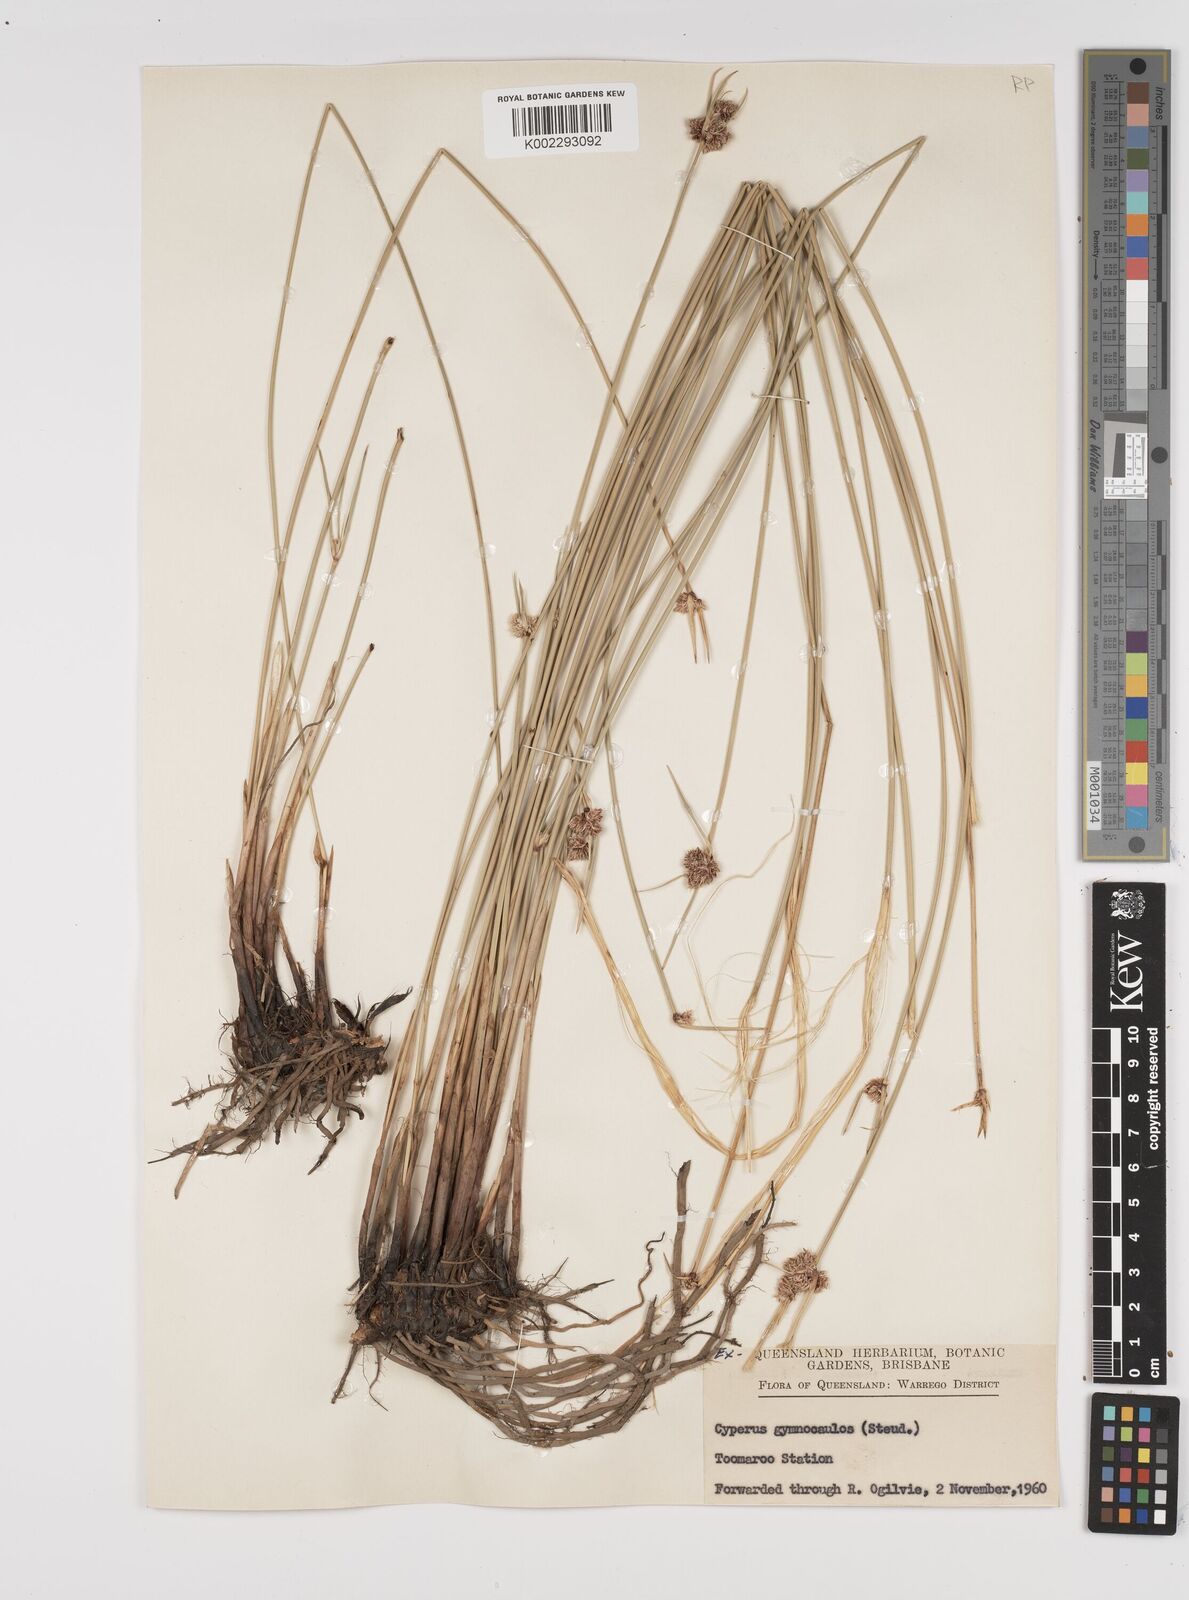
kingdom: Plantae
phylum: Tracheophyta
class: Liliopsida
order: Poales
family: Cyperaceae
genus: Cyperus
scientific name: Cyperus gymnocaulos
